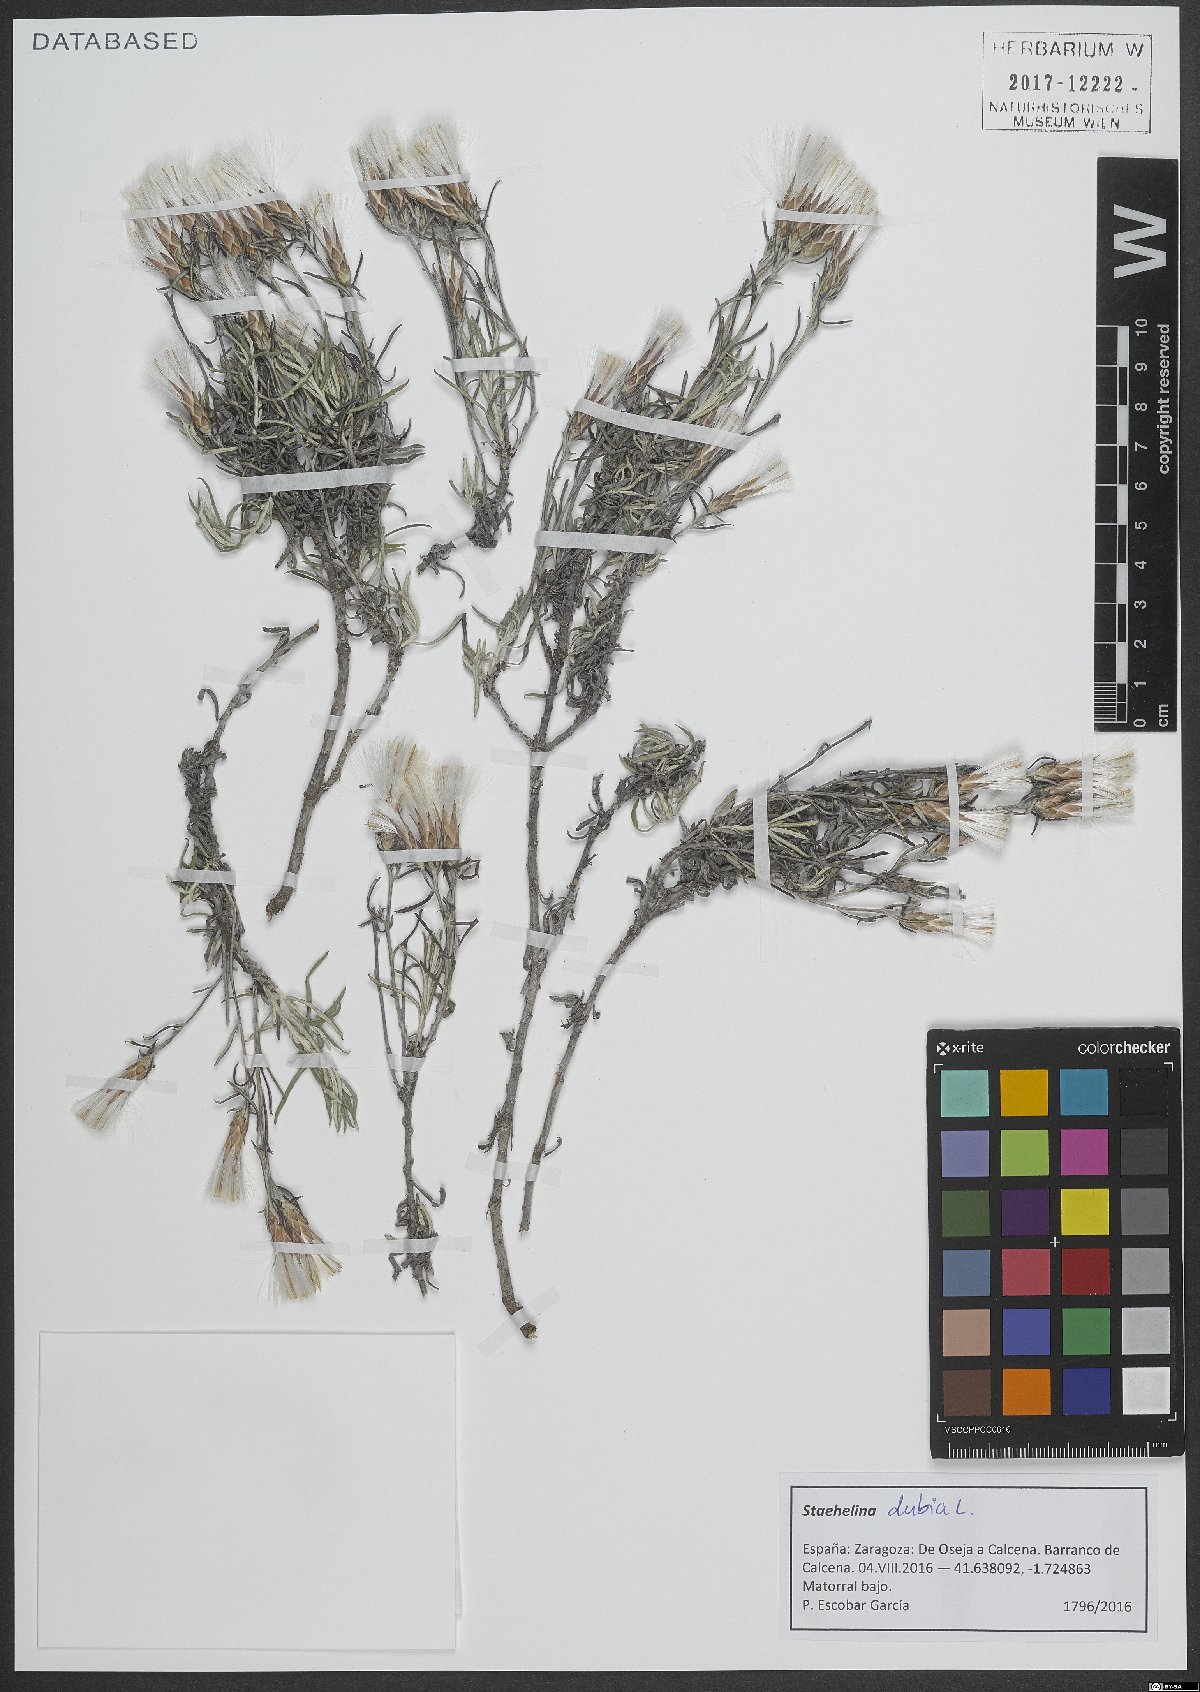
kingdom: Plantae
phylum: Tracheophyta
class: Magnoliopsida
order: Asterales
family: Asteraceae
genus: Staehelina
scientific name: Staehelina dubia
